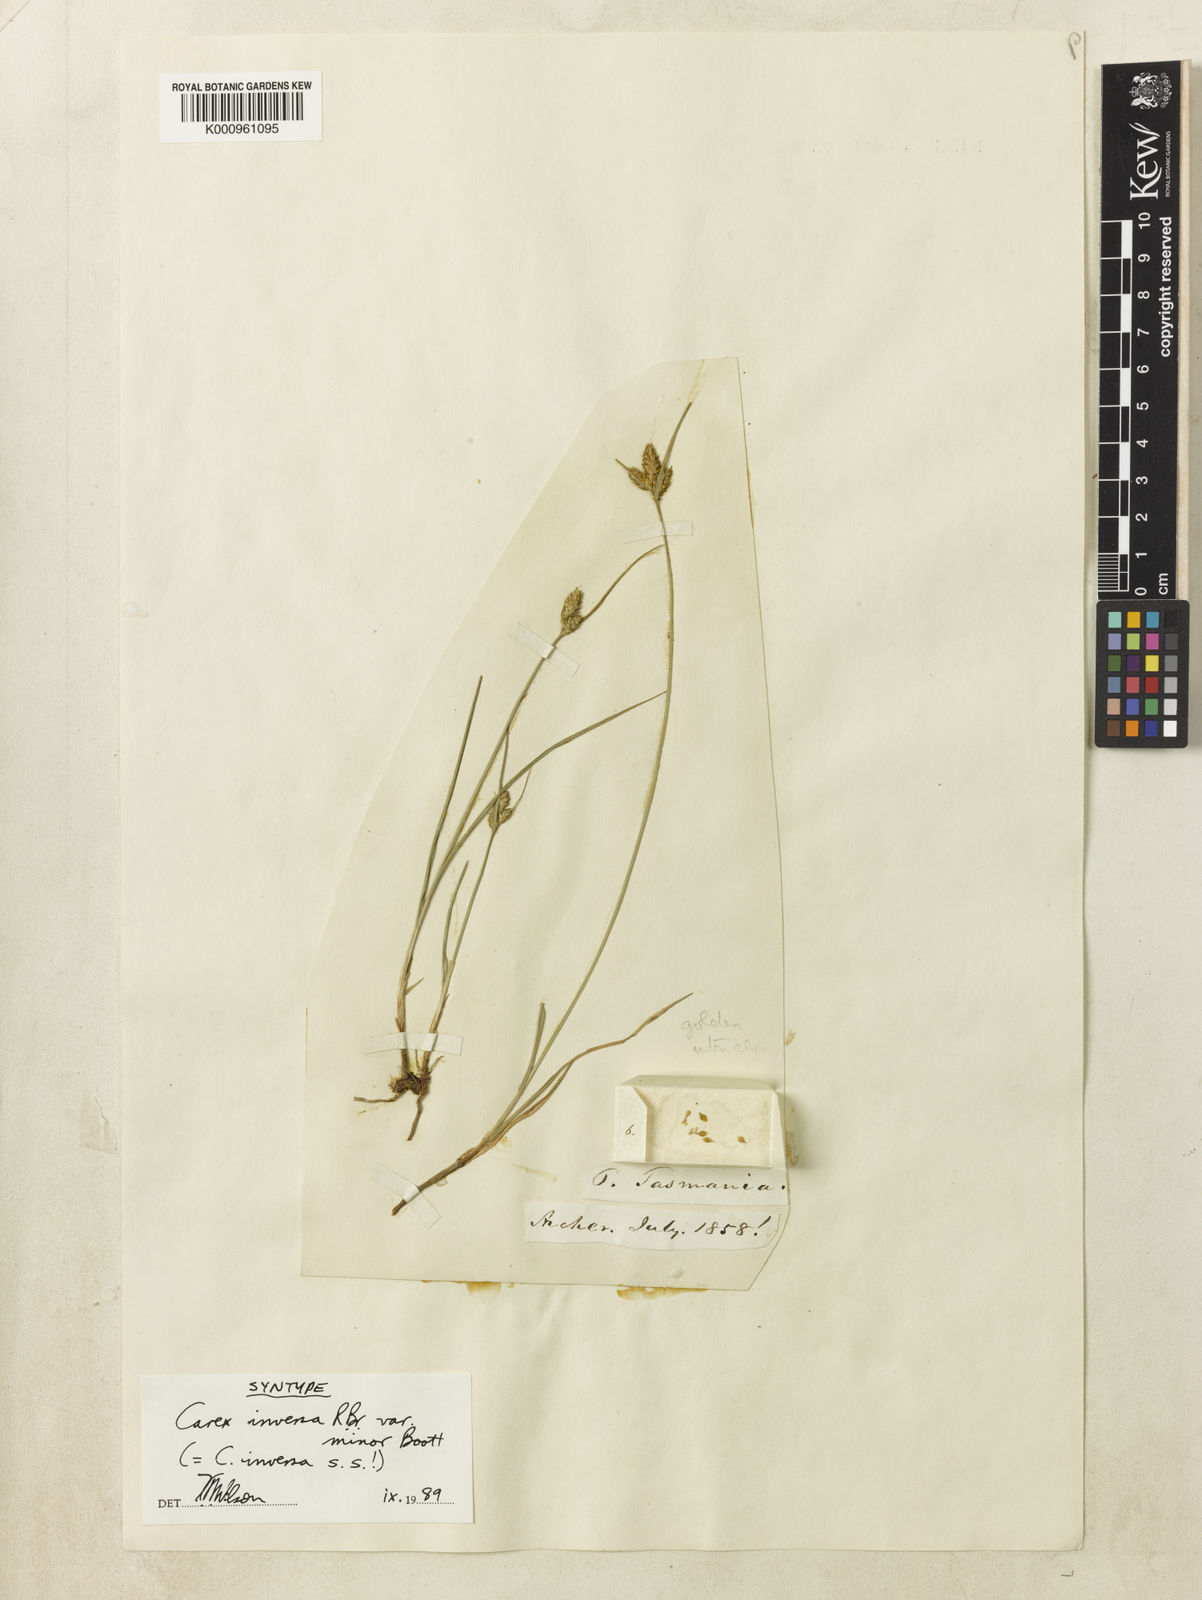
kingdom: Plantae
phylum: Tracheophyta
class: Liliopsida
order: Poales
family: Cyperaceae
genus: Carex
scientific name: Carex inversa
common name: Knob sedge
